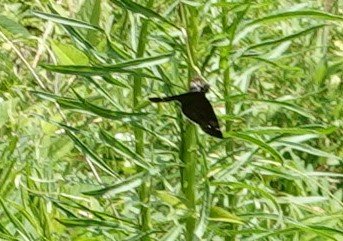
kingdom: Animalia
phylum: Arthropoda
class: Insecta
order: Lepidoptera
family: Hesperiidae
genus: Gesta
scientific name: Gesta
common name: Horace's Duskywing
